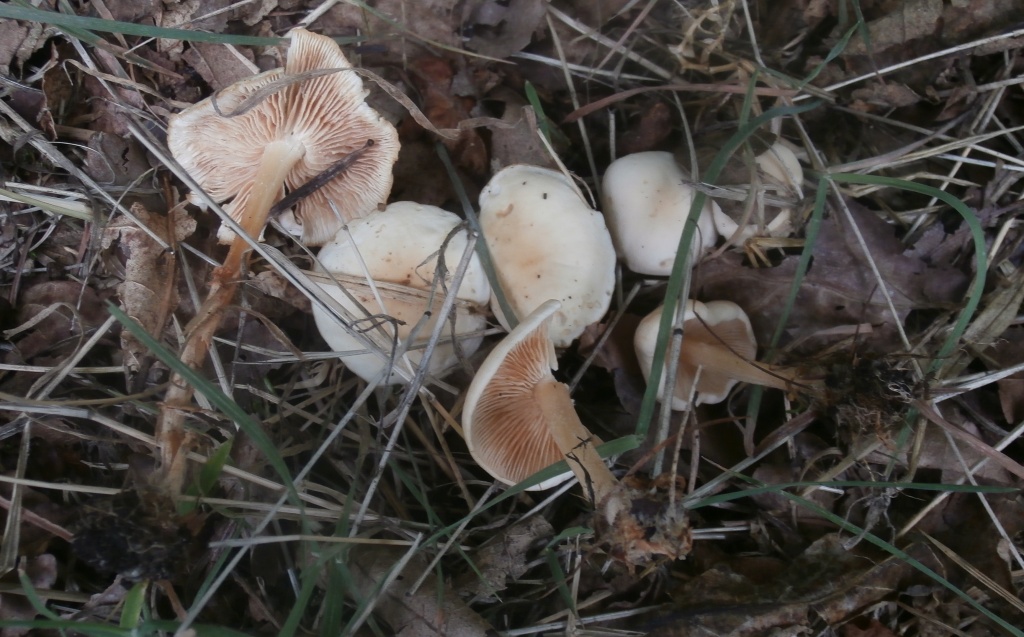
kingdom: Fungi
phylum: Basidiomycota
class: Agaricomycetes
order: Agaricales
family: Omphalotaceae
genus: Gymnopus
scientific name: Gymnopus dryophilus
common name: løv-fladhat
